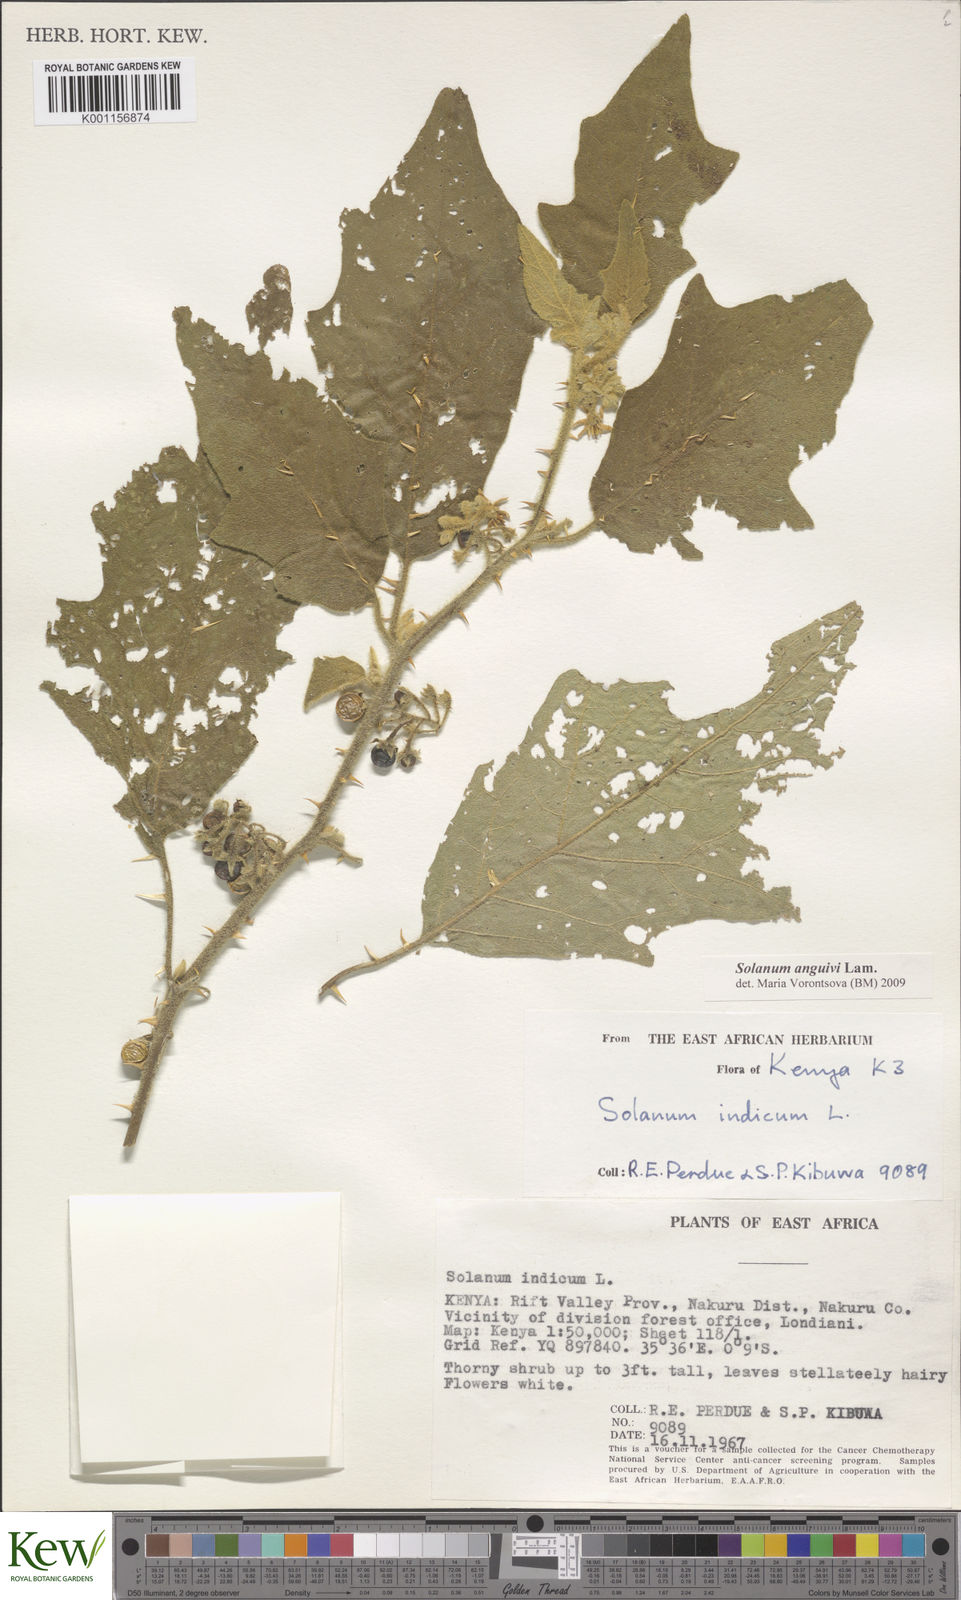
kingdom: Plantae
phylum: Tracheophyta
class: Magnoliopsida
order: Solanales
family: Solanaceae
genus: Solanum
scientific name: Solanum anguivi
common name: Forest bitterberry
